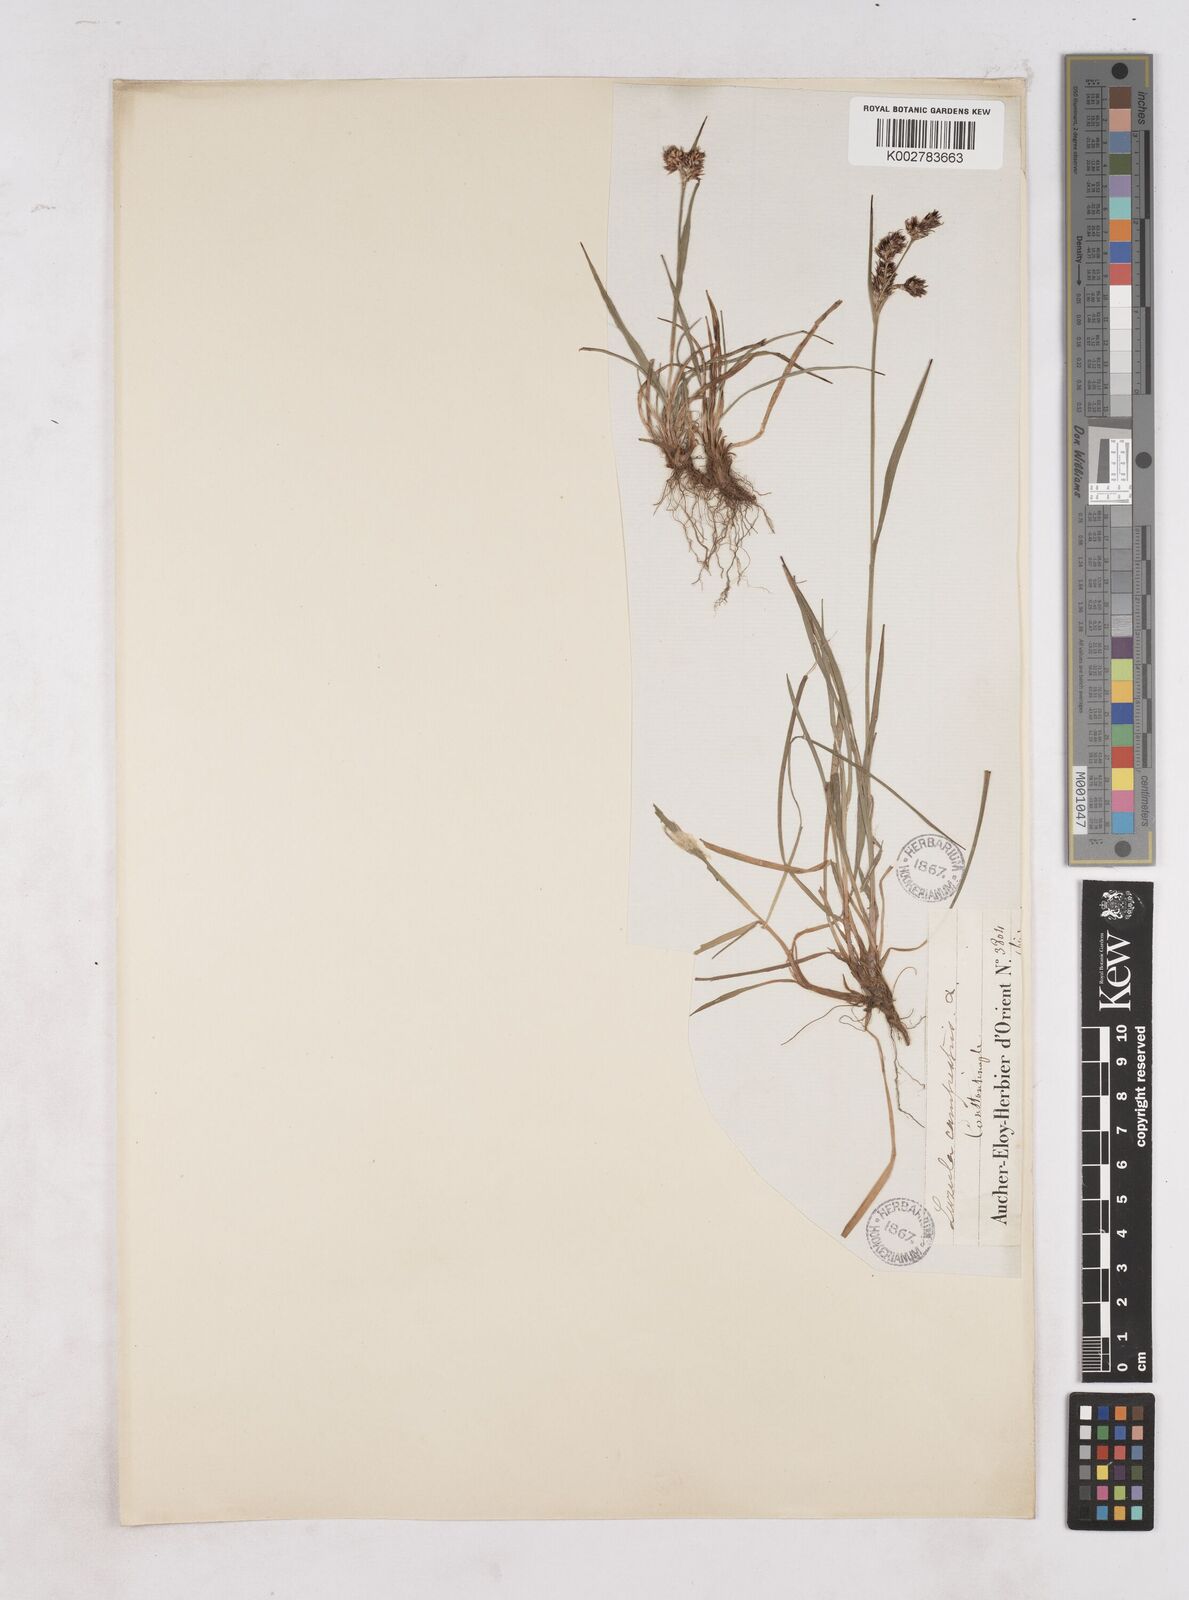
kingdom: Plantae
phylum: Tracheophyta
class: Liliopsida
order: Poales
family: Juncaceae
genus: Luzula
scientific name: Luzula campestris
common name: Field wood-rush
